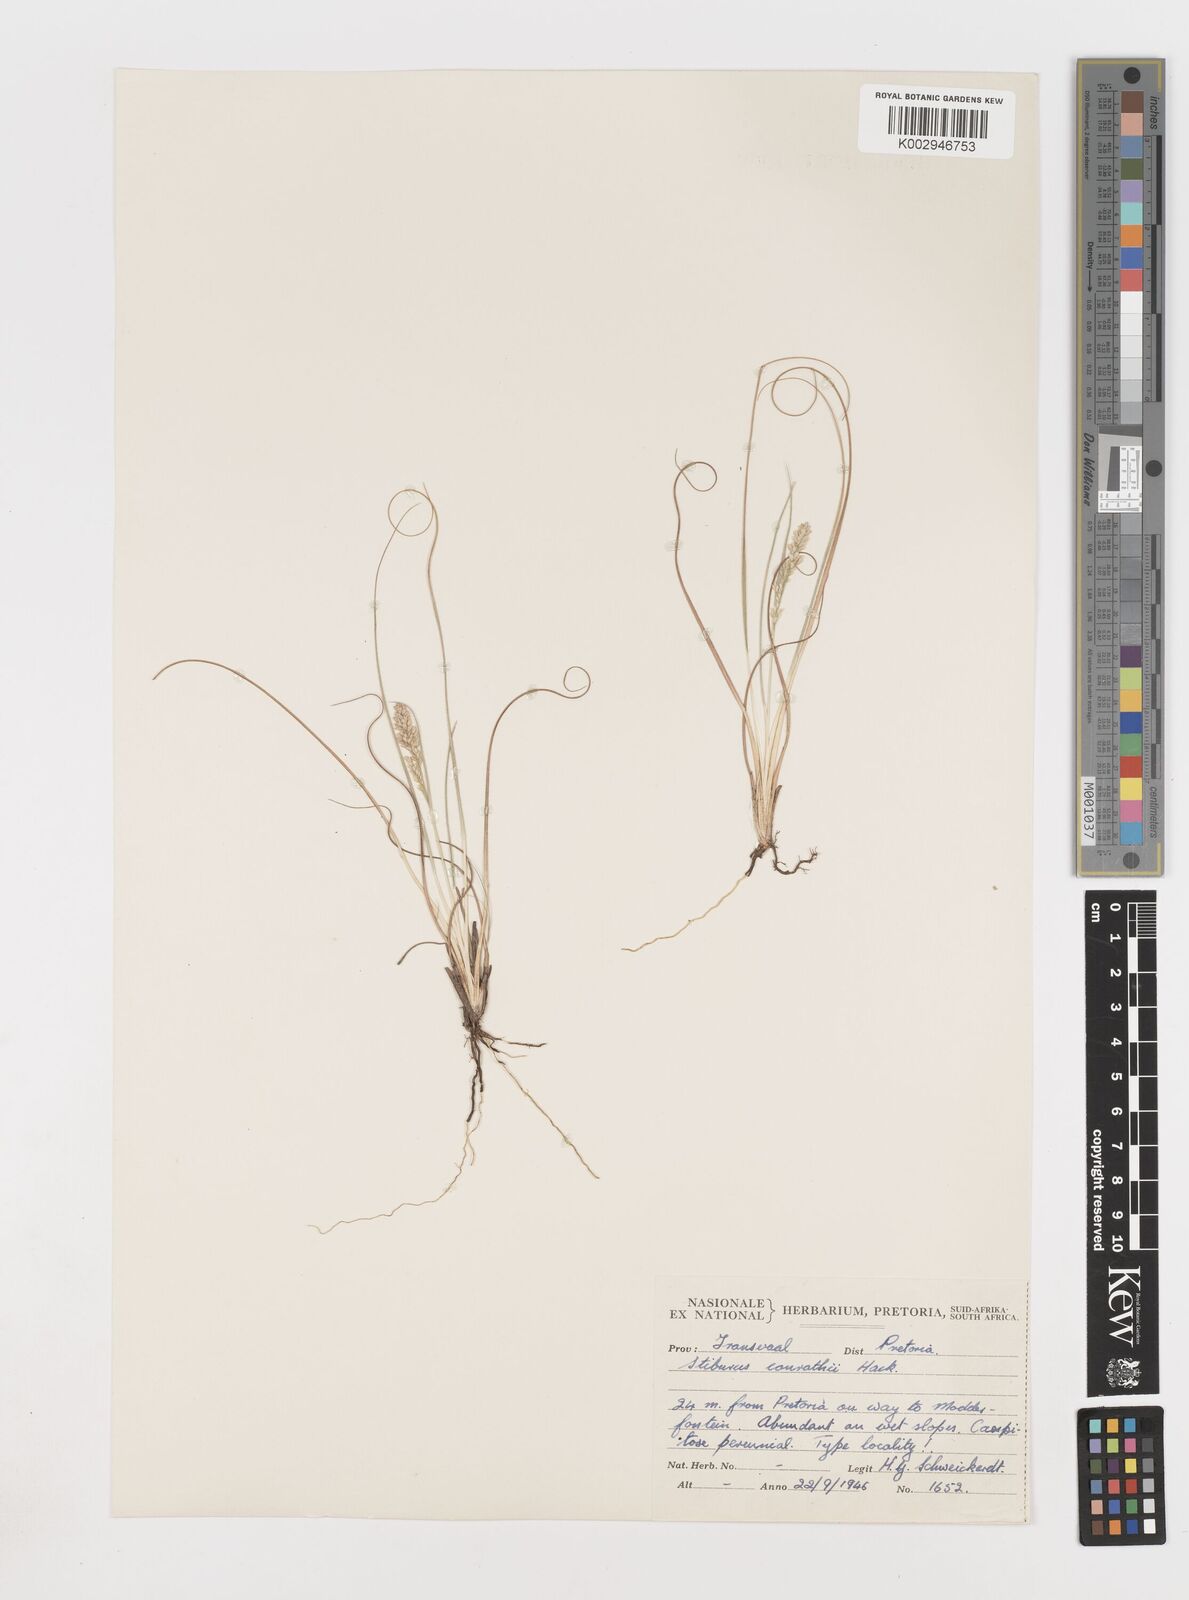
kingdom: Plantae
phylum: Tracheophyta
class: Liliopsida
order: Poales
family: Poaceae
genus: Stiburus
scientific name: Stiburus conrathii
